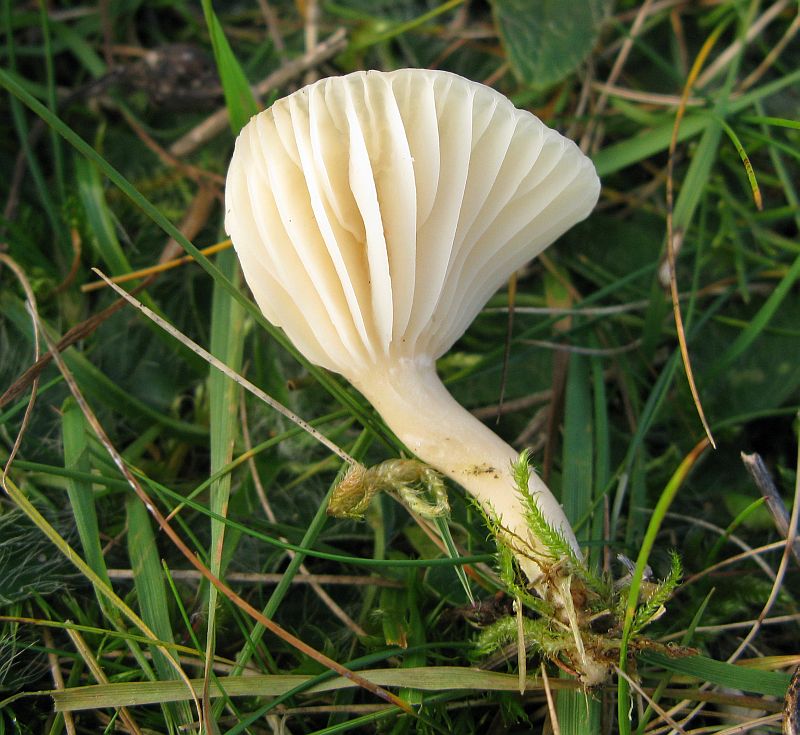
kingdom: Fungi
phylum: Basidiomycota
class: Agaricomycetes
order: Agaricales
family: Hygrophoraceae
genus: Cuphophyllus
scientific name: Cuphophyllus pratensis
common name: eng-vokshat
